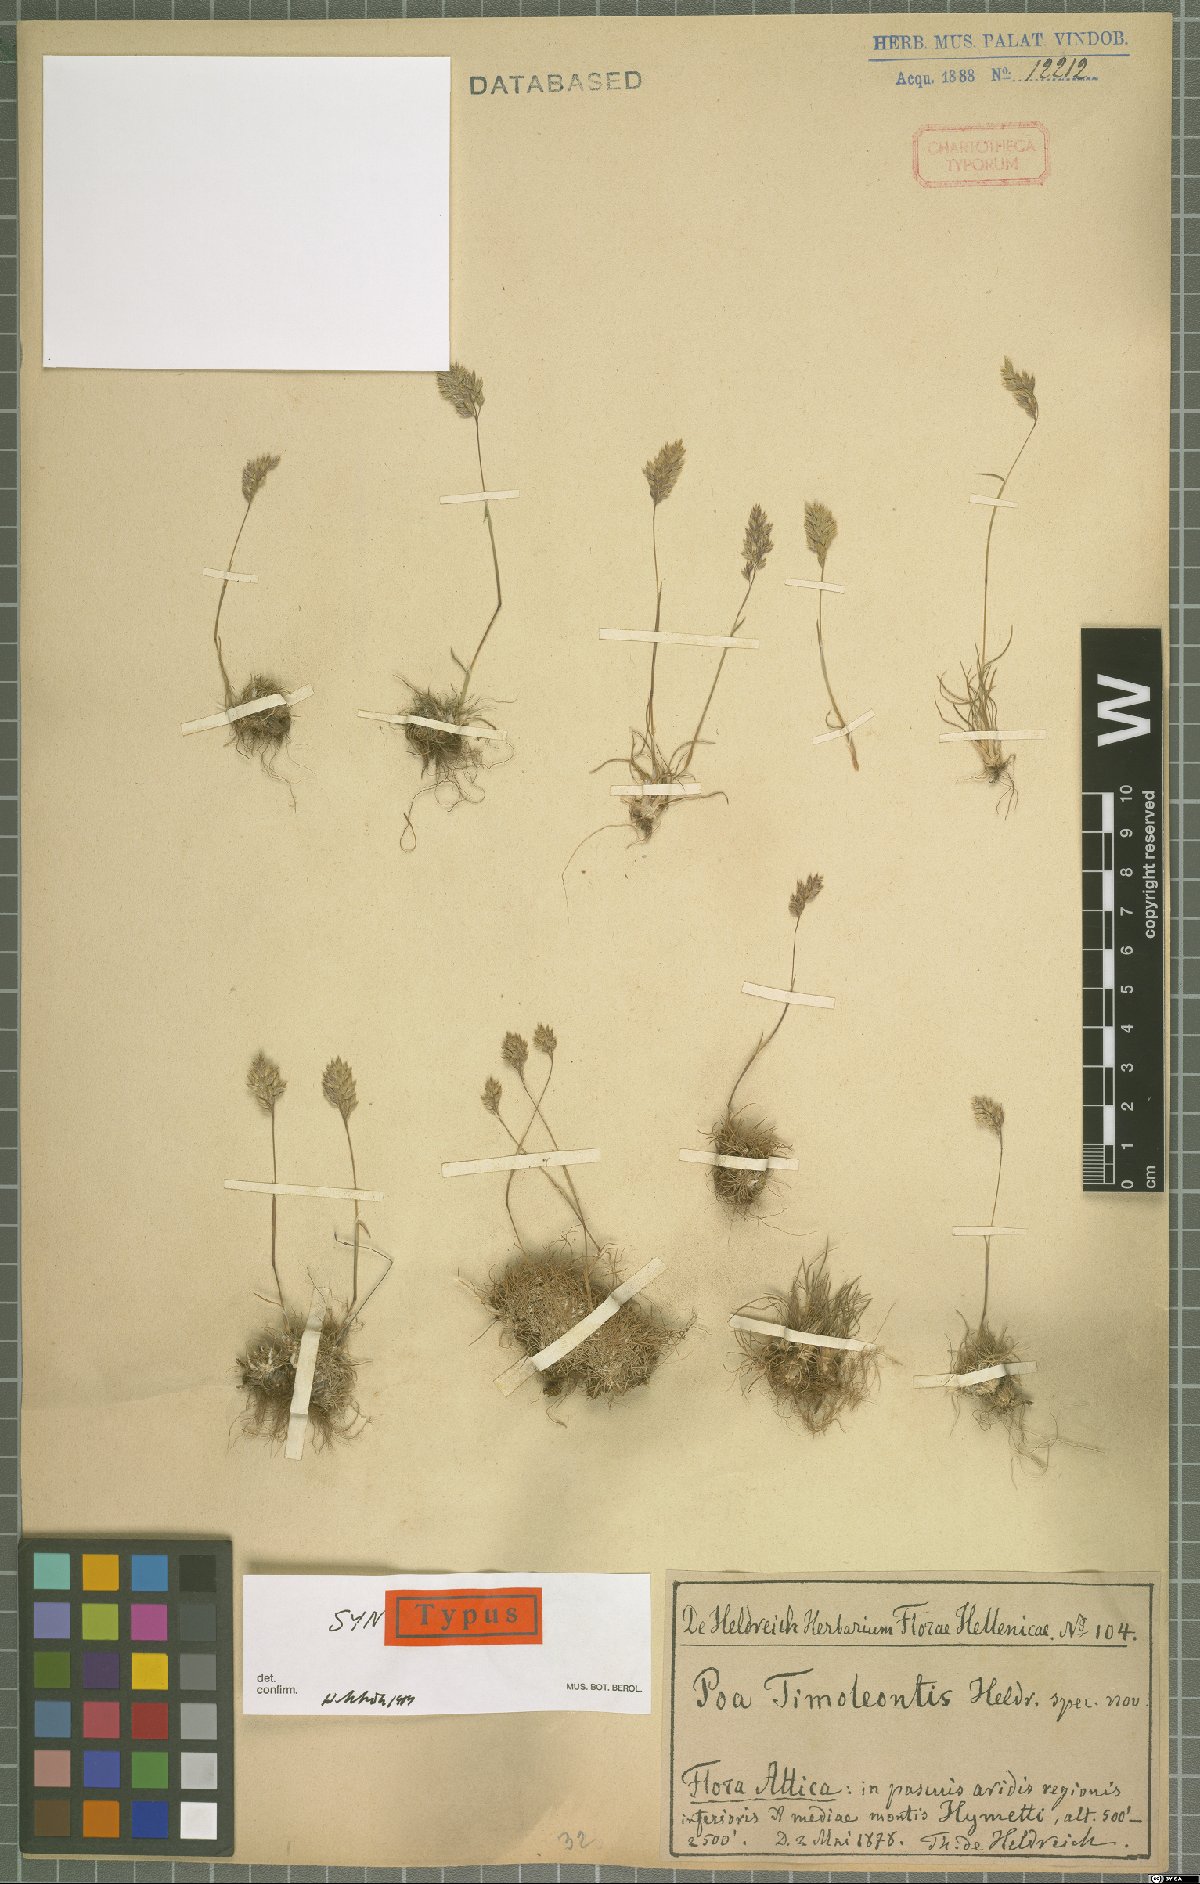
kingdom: Plantae
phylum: Tracheophyta
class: Liliopsida
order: Poales
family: Poaceae
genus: Poa
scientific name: Poa timoleontis
